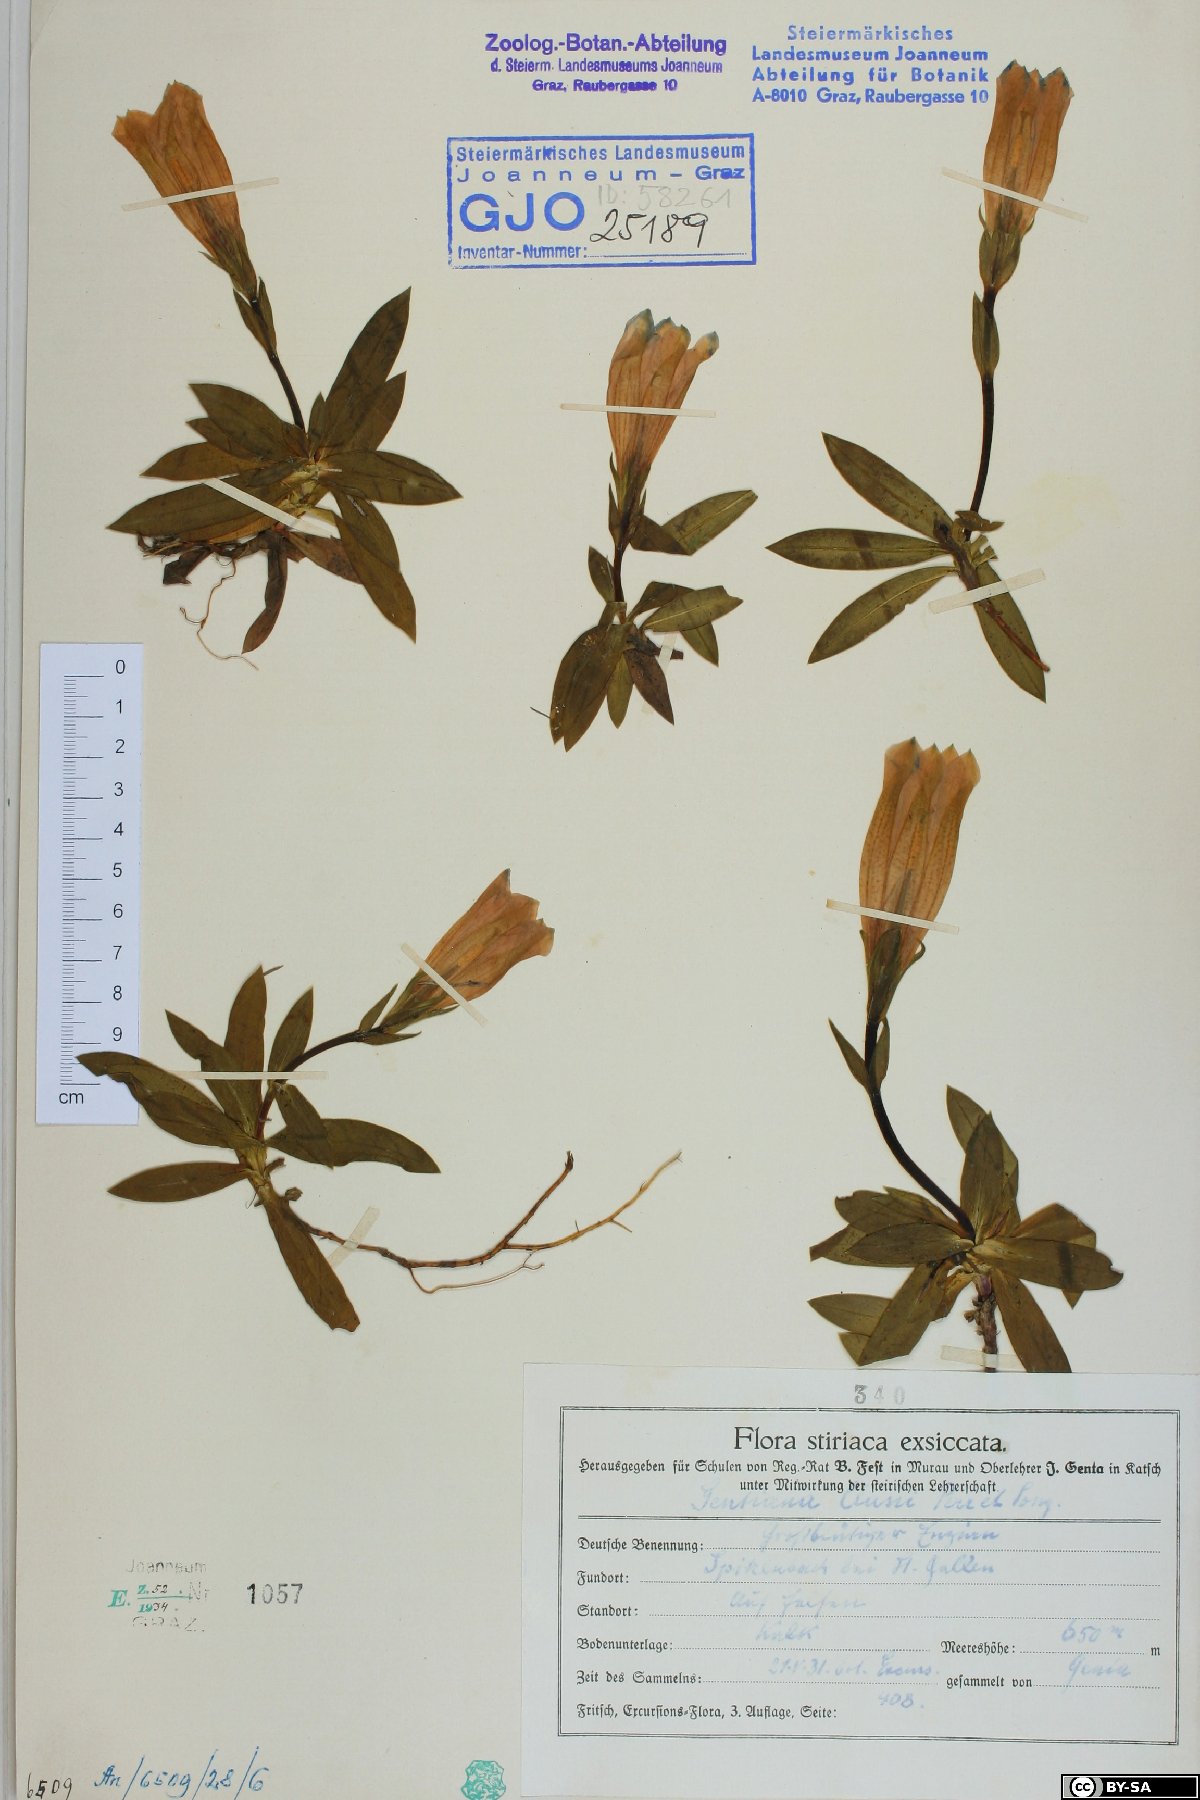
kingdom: Plantae
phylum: Tracheophyta
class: Magnoliopsida
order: Gentianales
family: Gentianaceae
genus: Gentiana
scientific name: Gentiana clusii
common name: Trumpet gentian
